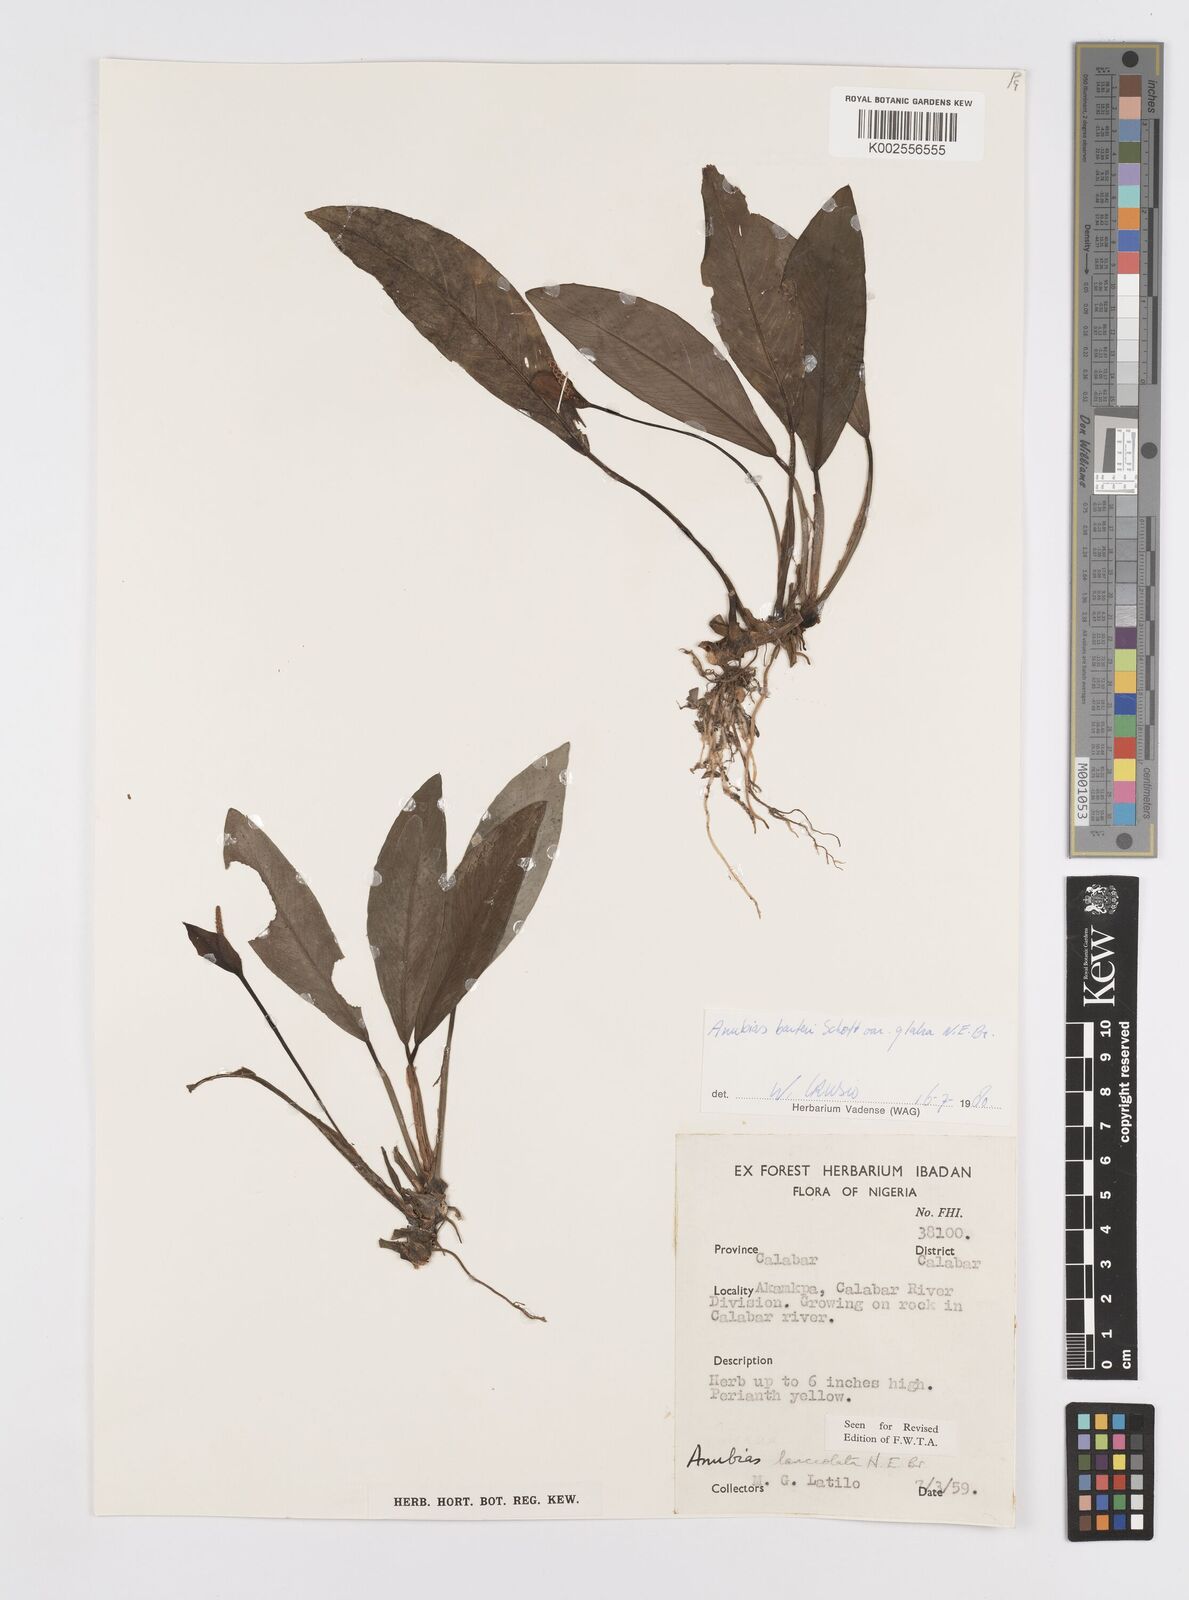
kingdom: Plantae
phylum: Tracheophyta
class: Liliopsida
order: Alismatales
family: Araceae
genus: Anubias
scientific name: Anubias barteri
